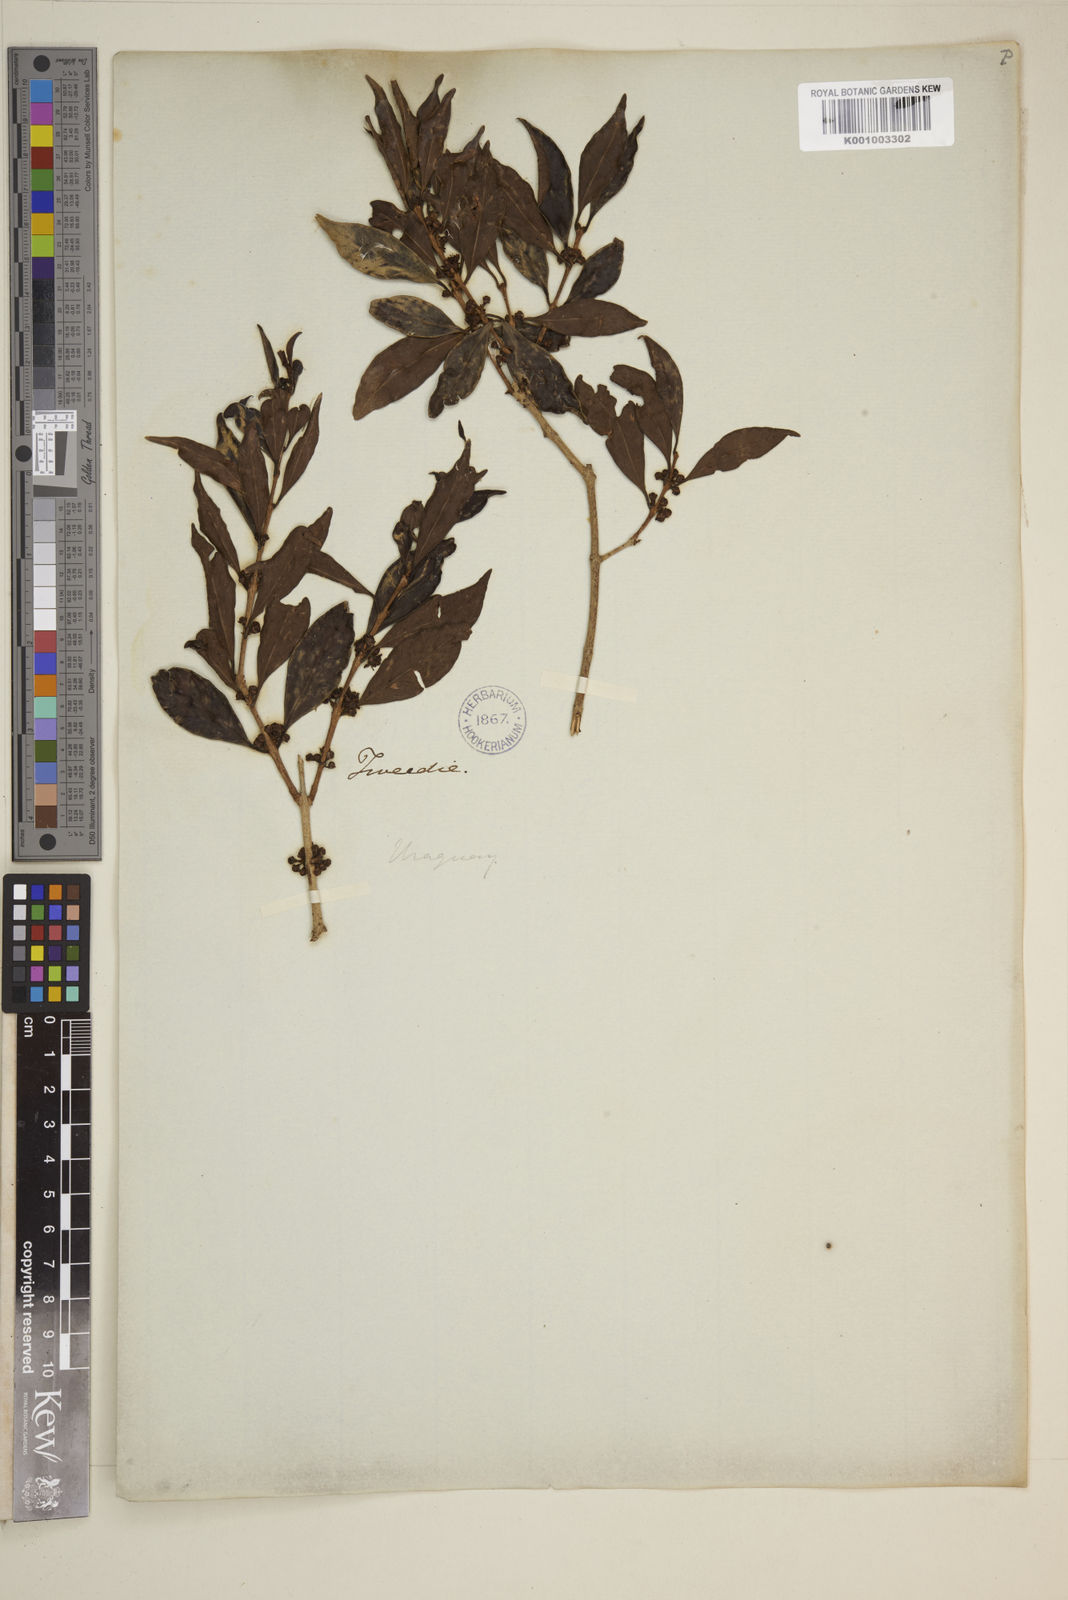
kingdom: Plantae
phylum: Tracheophyta
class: Magnoliopsida
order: Myrtales
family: Myrtaceae
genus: Eugenia
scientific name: Eugenia
